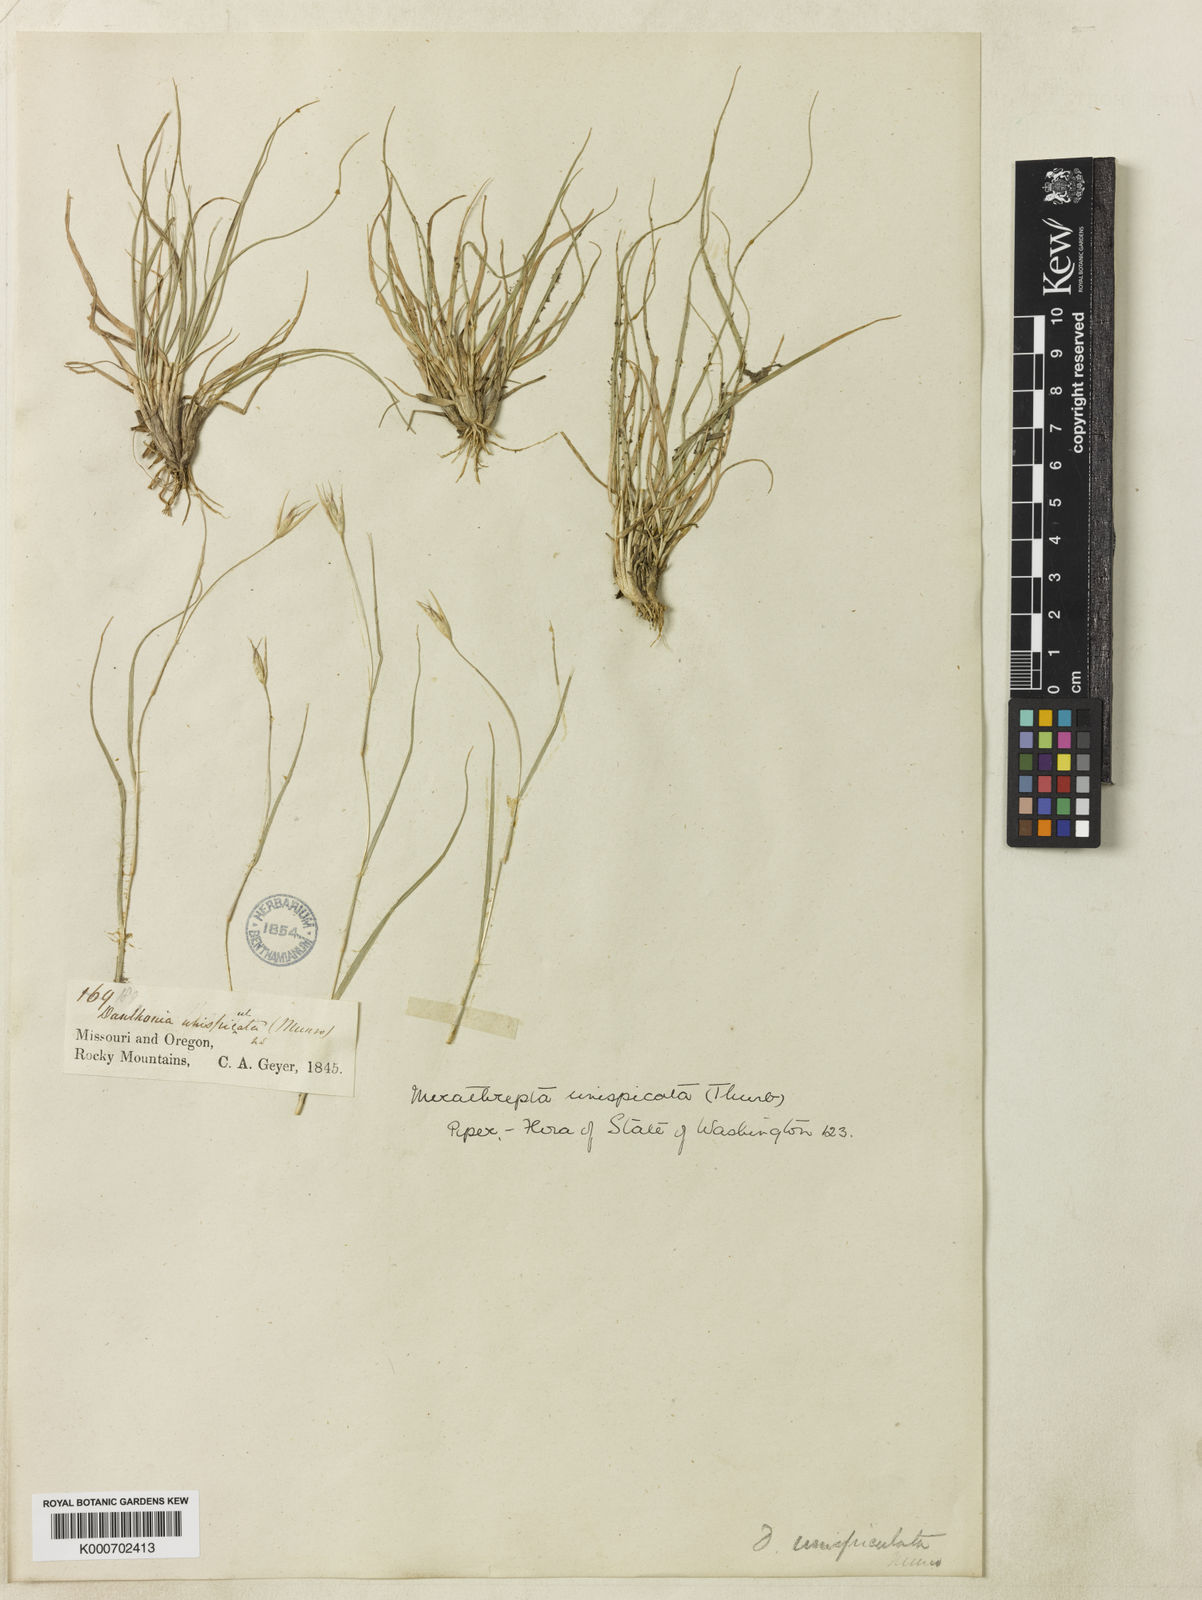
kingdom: Plantae
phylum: Tracheophyta
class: Liliopsida
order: Poales
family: Poaceae
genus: Danthonia
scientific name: Danthonia unispicata
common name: Few-flowered oatgrass
